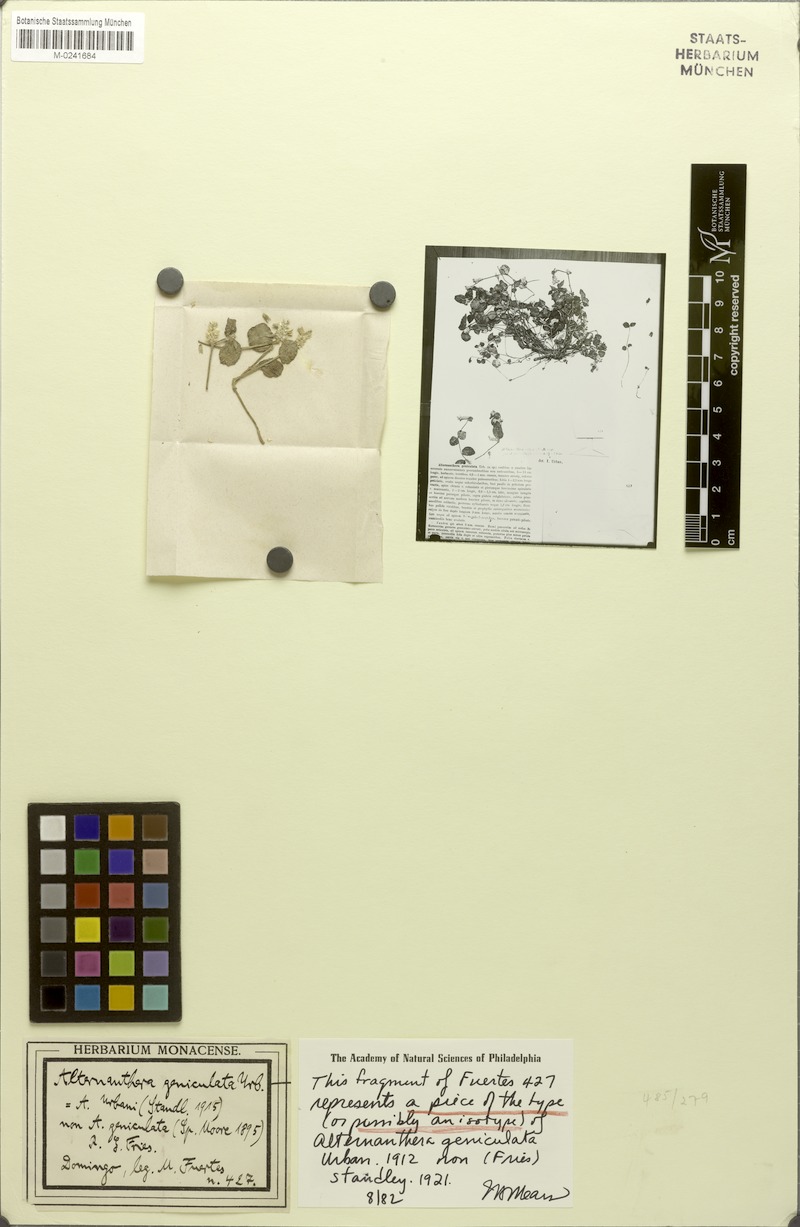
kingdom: Plantae
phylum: Tracheophyta
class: Magnoliopsida
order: Caryophyllales
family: Amaranthaceae
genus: Alternanthera
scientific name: Alternanthera geniculata
